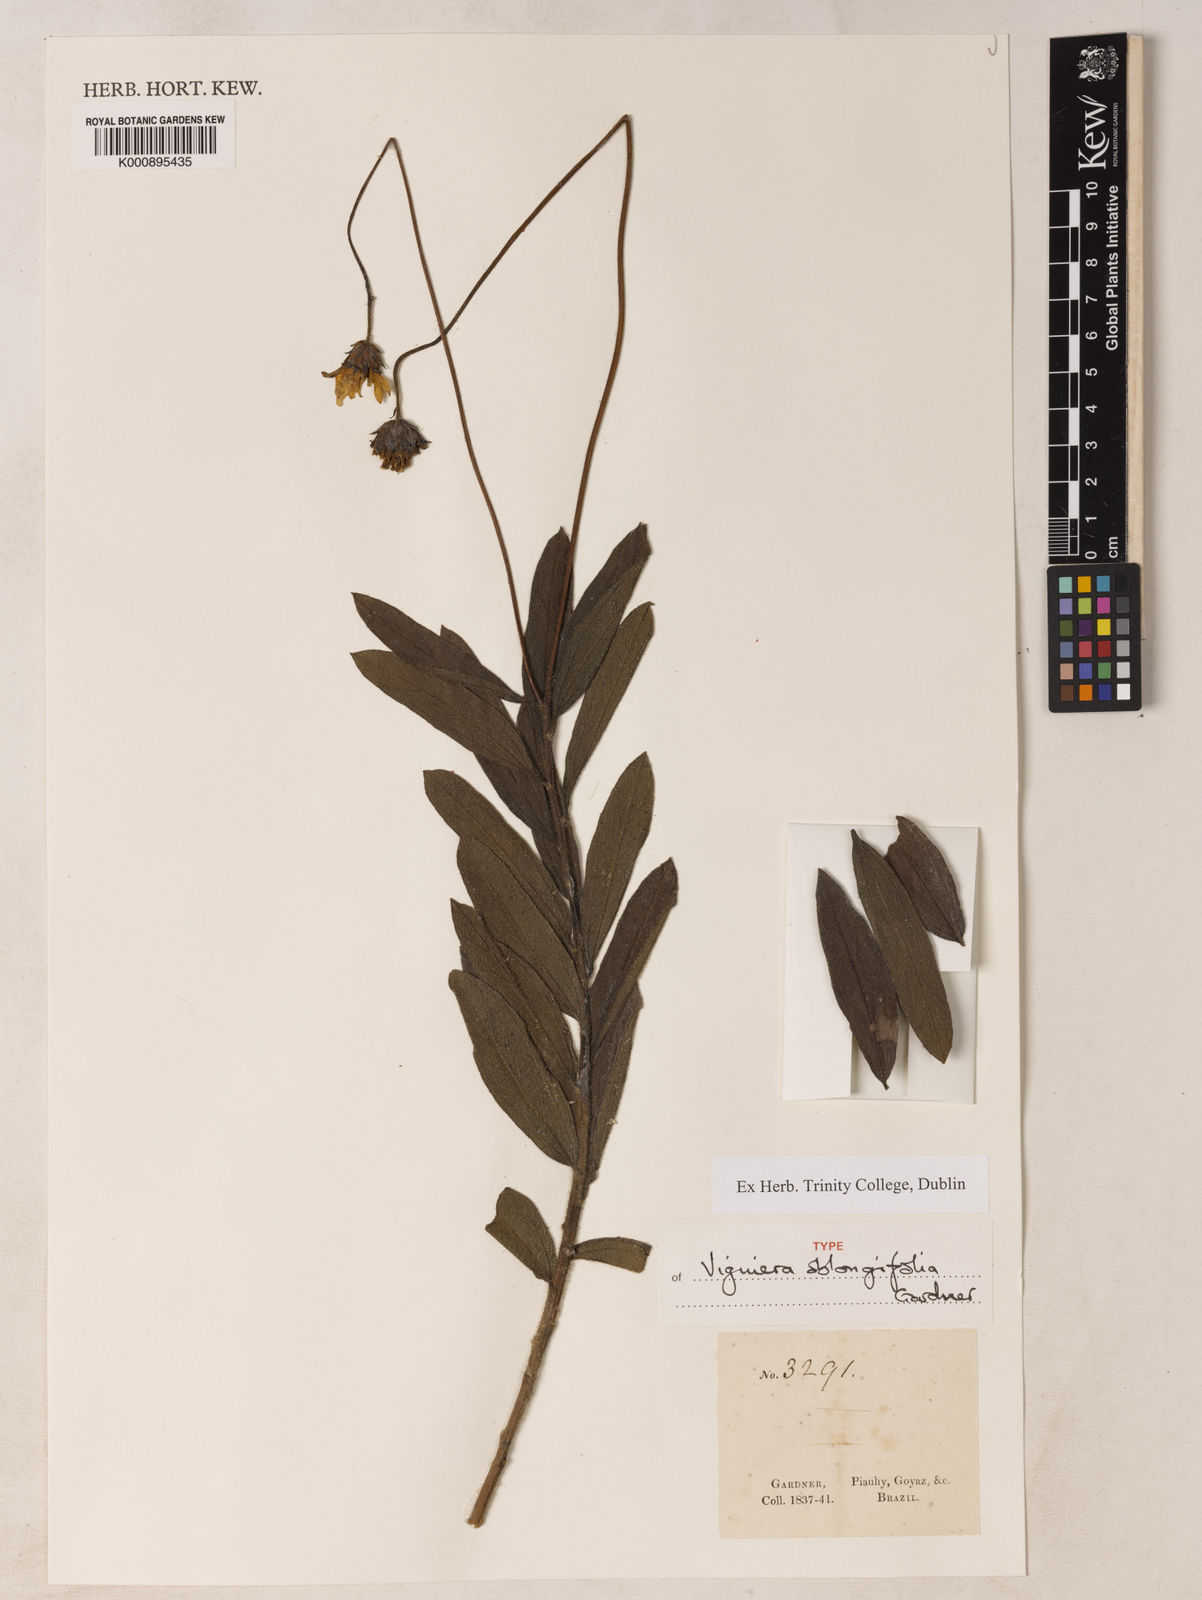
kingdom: Plantae
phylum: Tracheophyta
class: Magnoliopsida
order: Asterales
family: Asteraceae
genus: Aldama
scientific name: Aldama oblongifolia
